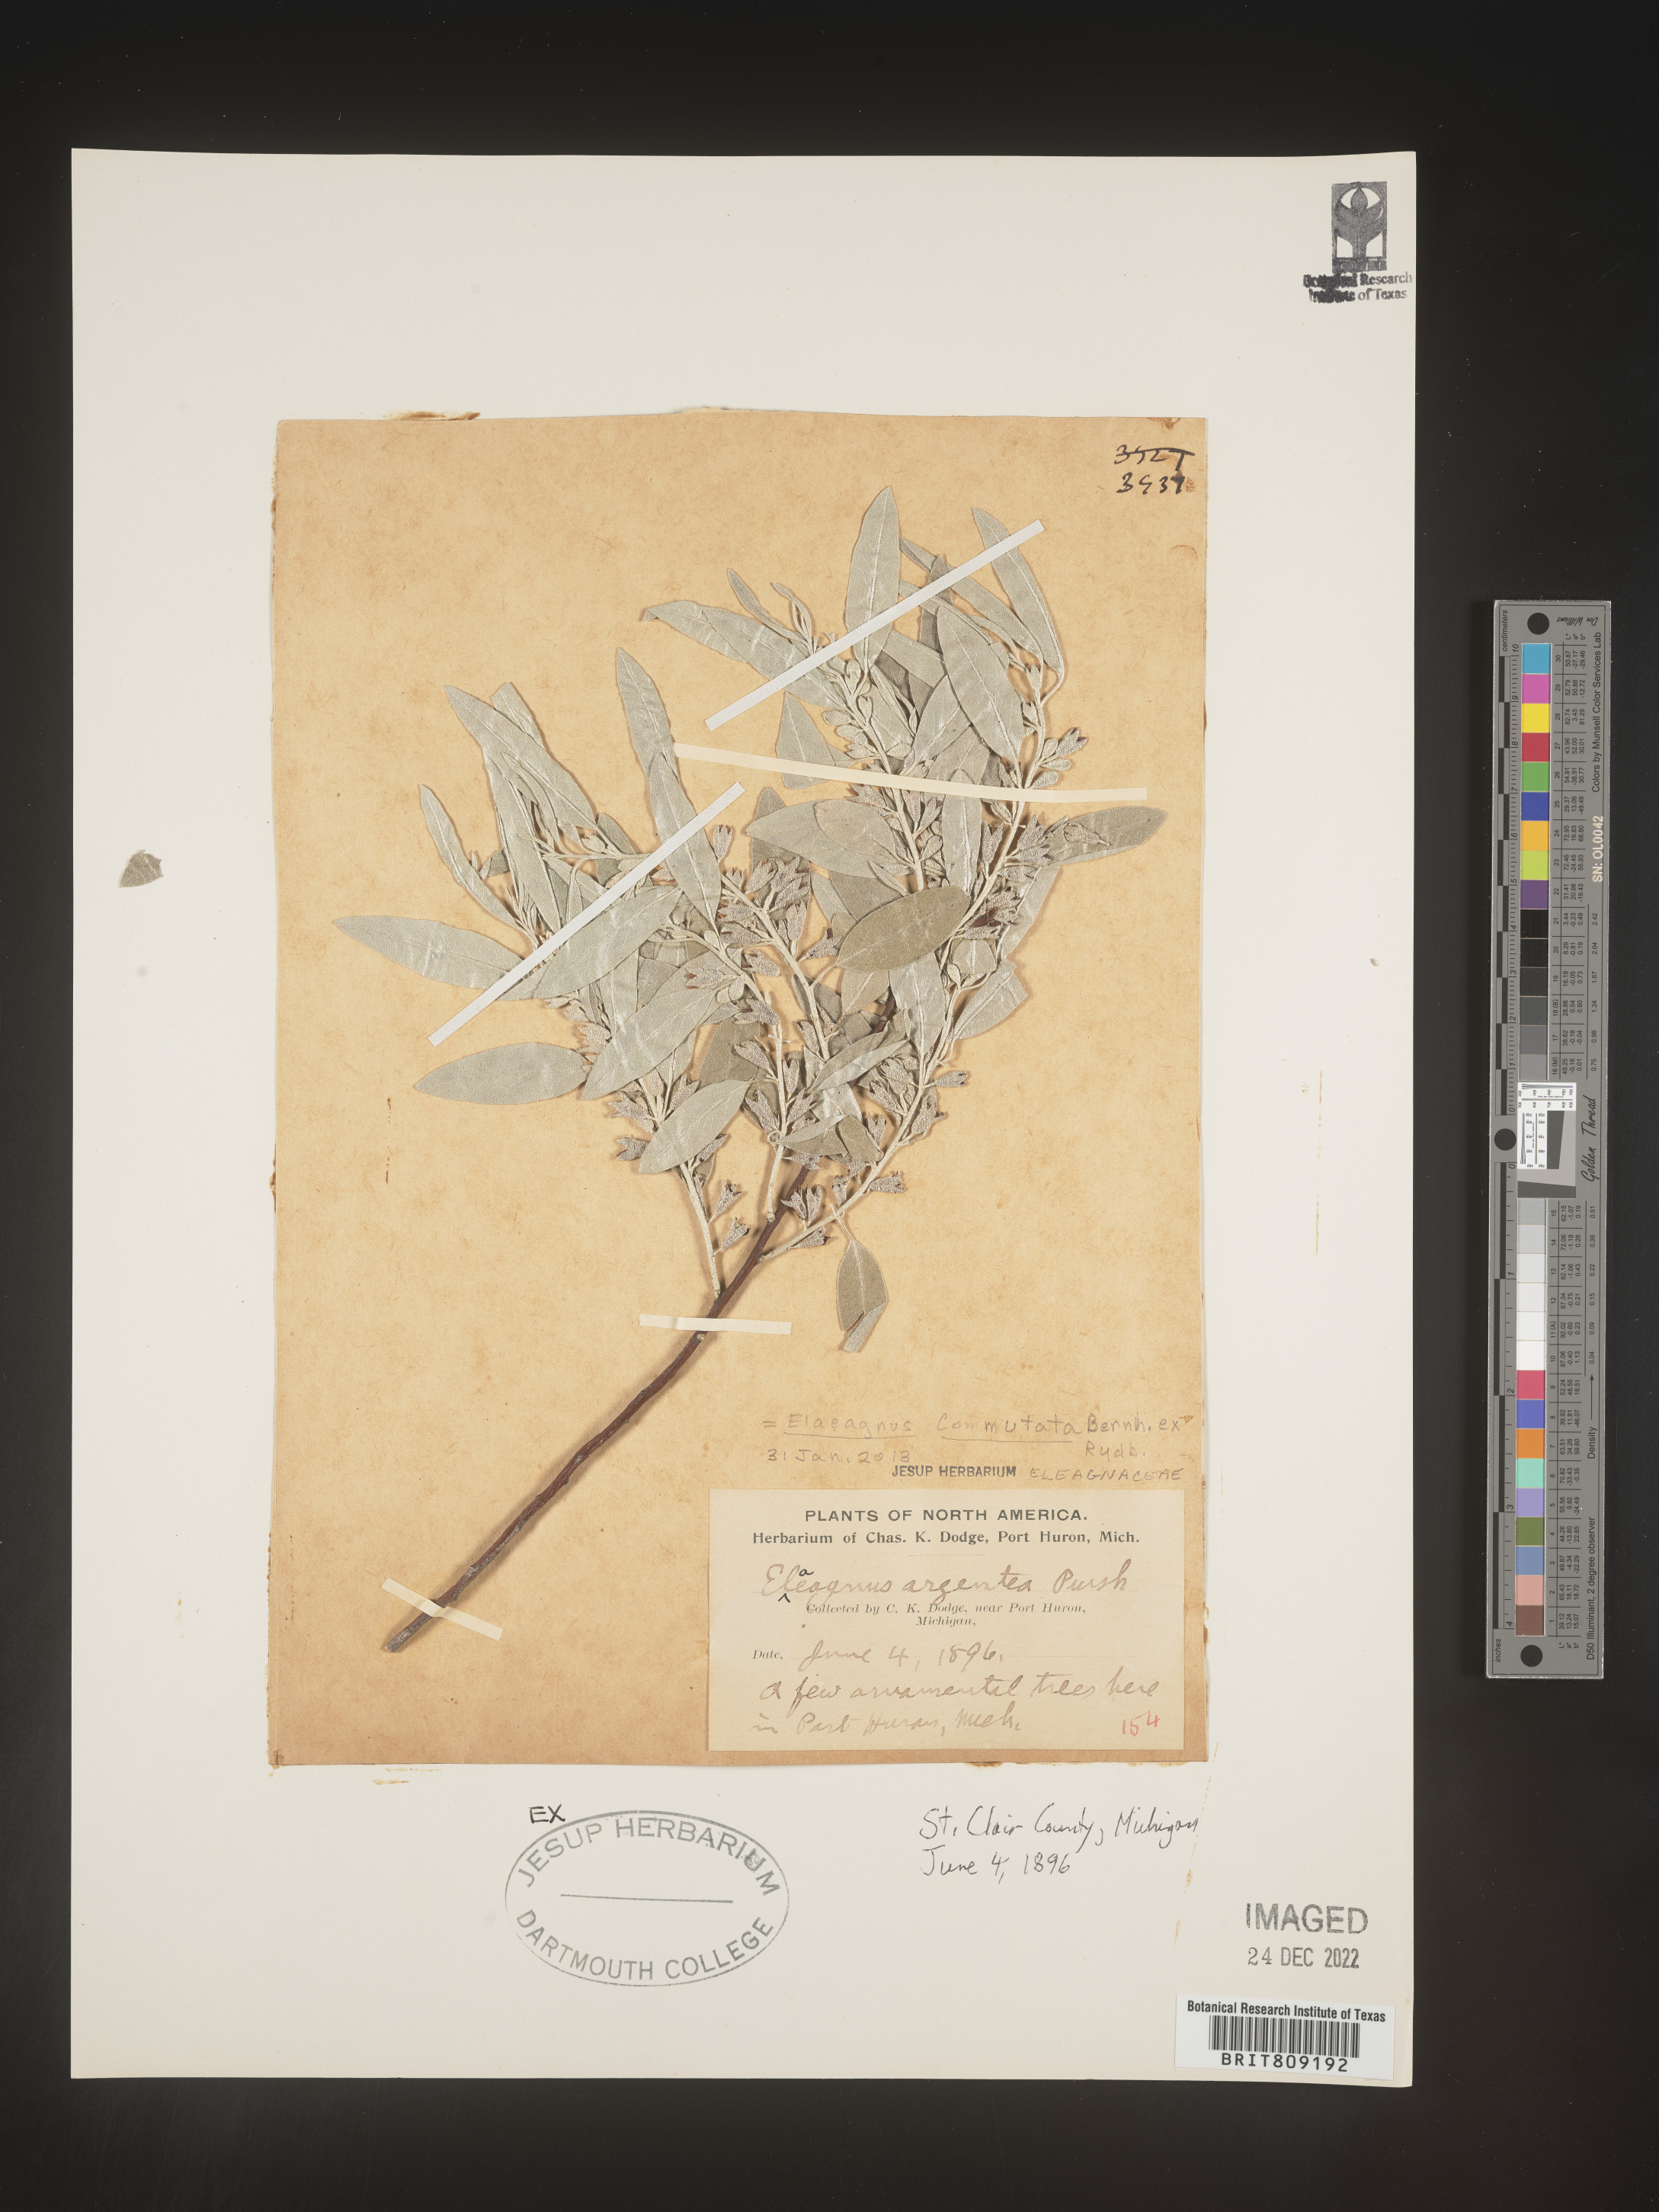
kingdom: Plantae
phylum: Tracheophyta
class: Magnoliopsida
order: Rosales
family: Elaeagnaceae
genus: Elaeagnus
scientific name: Elaeagnus
